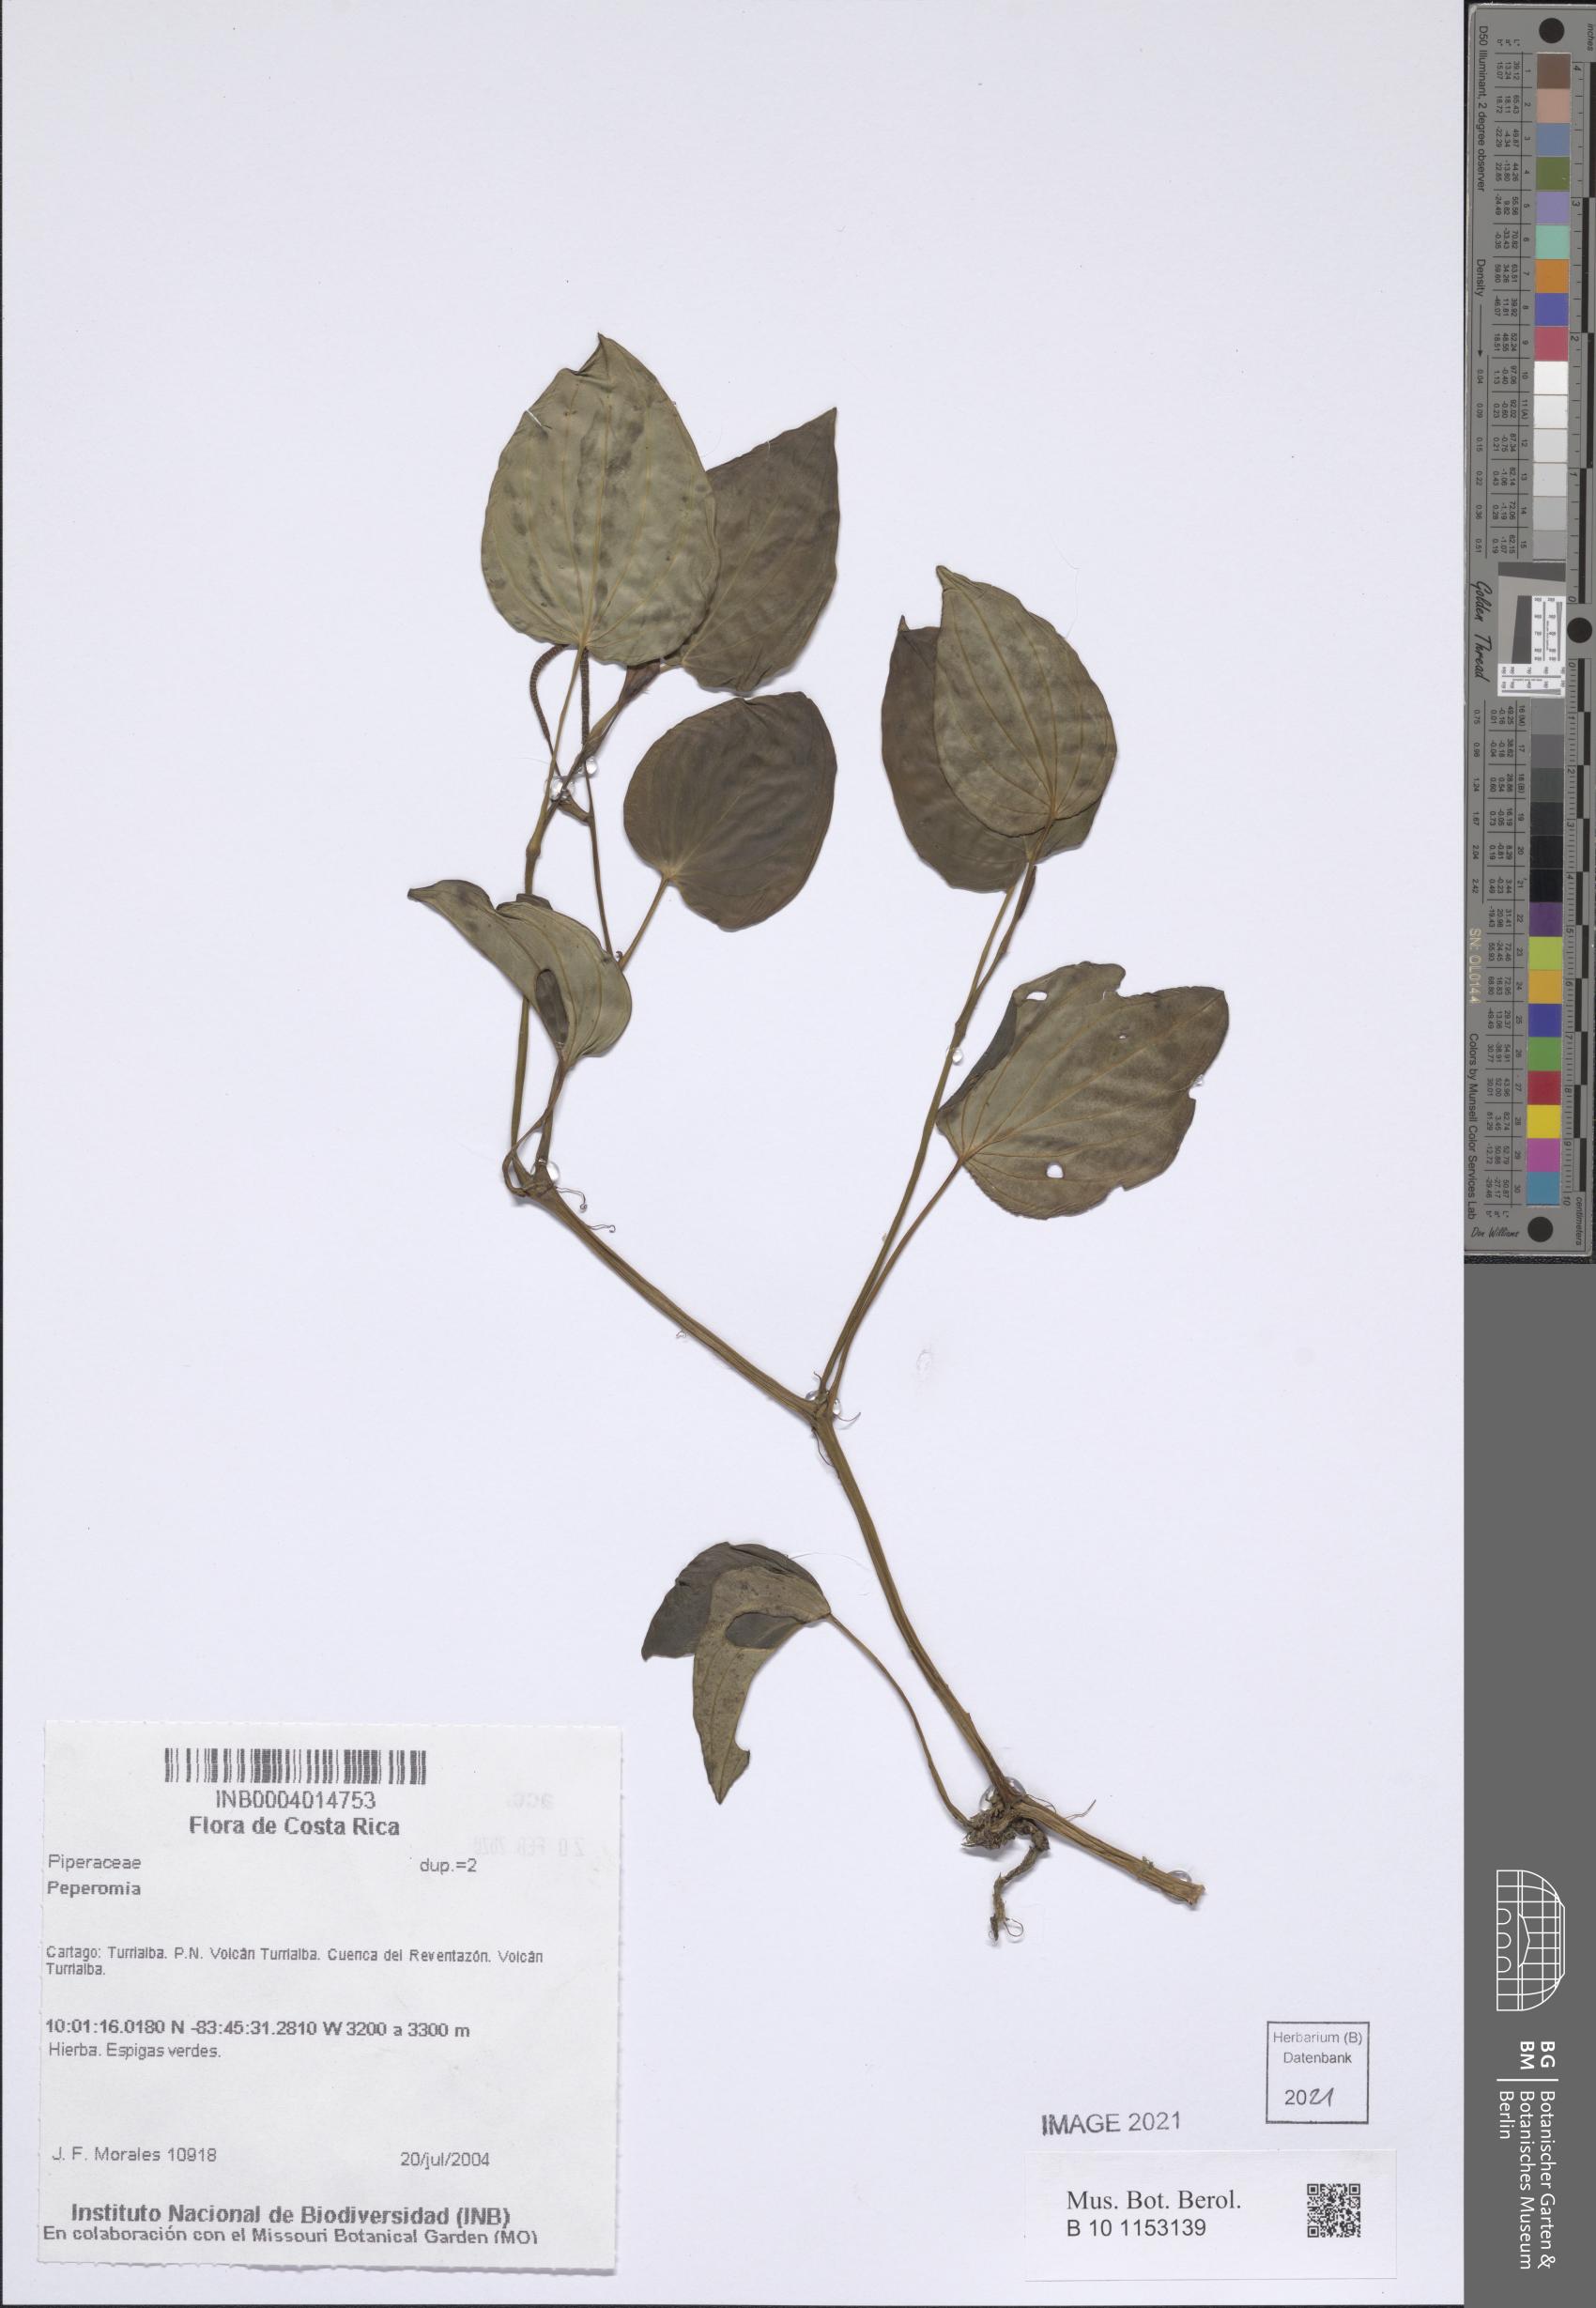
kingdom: Plantae
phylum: Tracheophyta
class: Magnoliopsida
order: Piperales
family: Piperaceae
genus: Peperomia
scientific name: Peperomia
